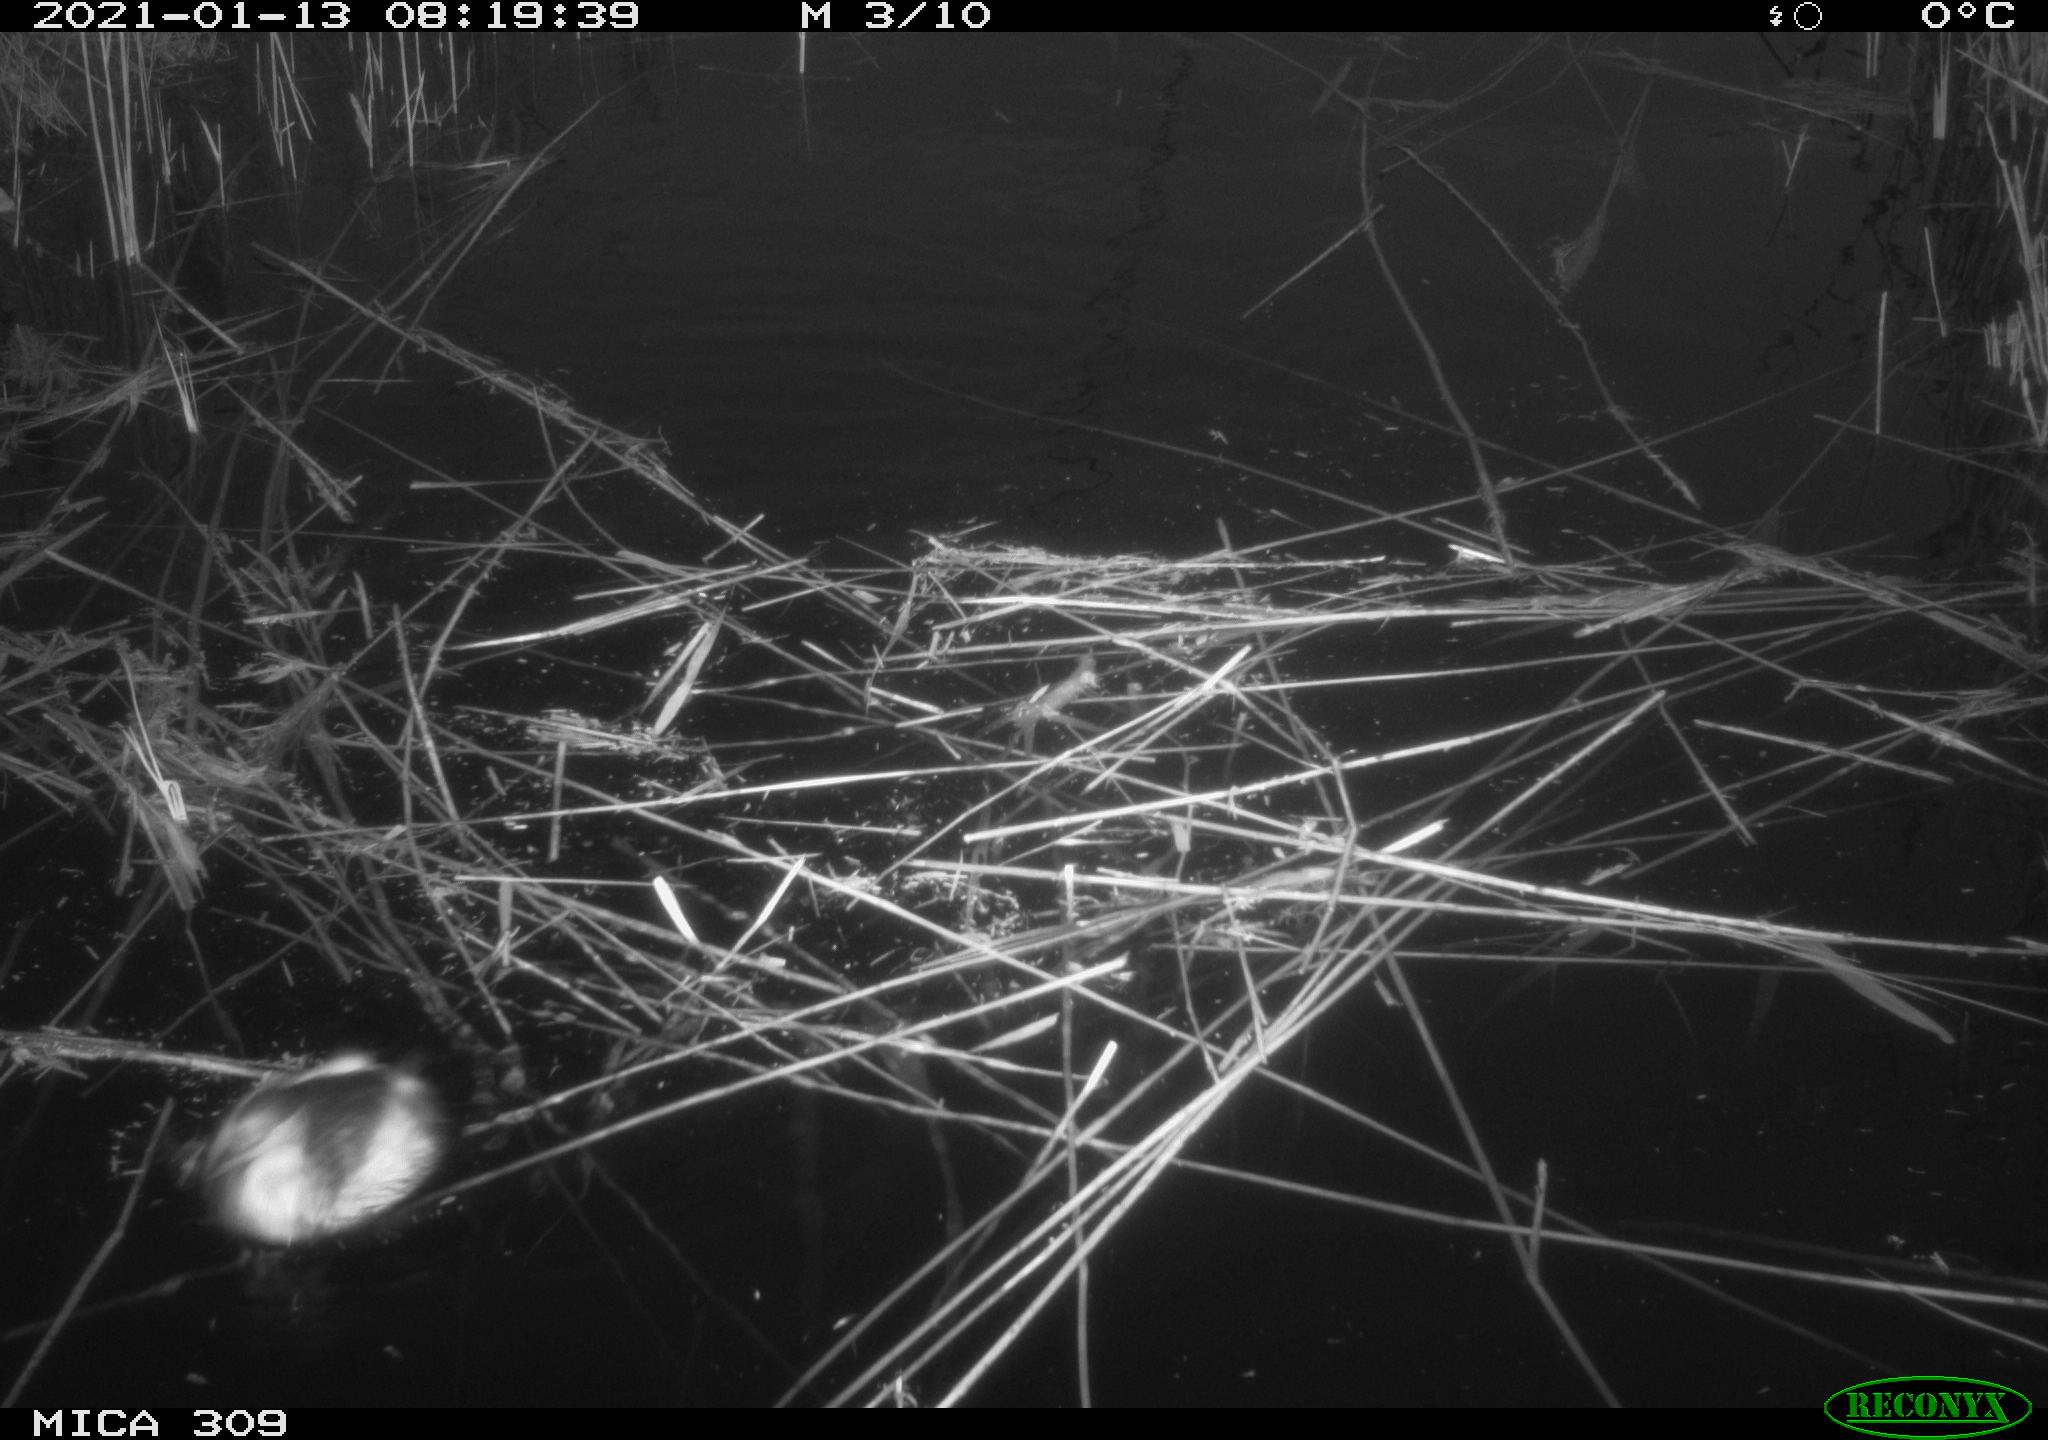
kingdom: Animalia
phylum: Chordata
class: Aves
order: Podicipediformes
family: Podicipedidae
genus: Tachybaptus
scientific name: Tachybaptus ruficollis
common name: Little grebe
